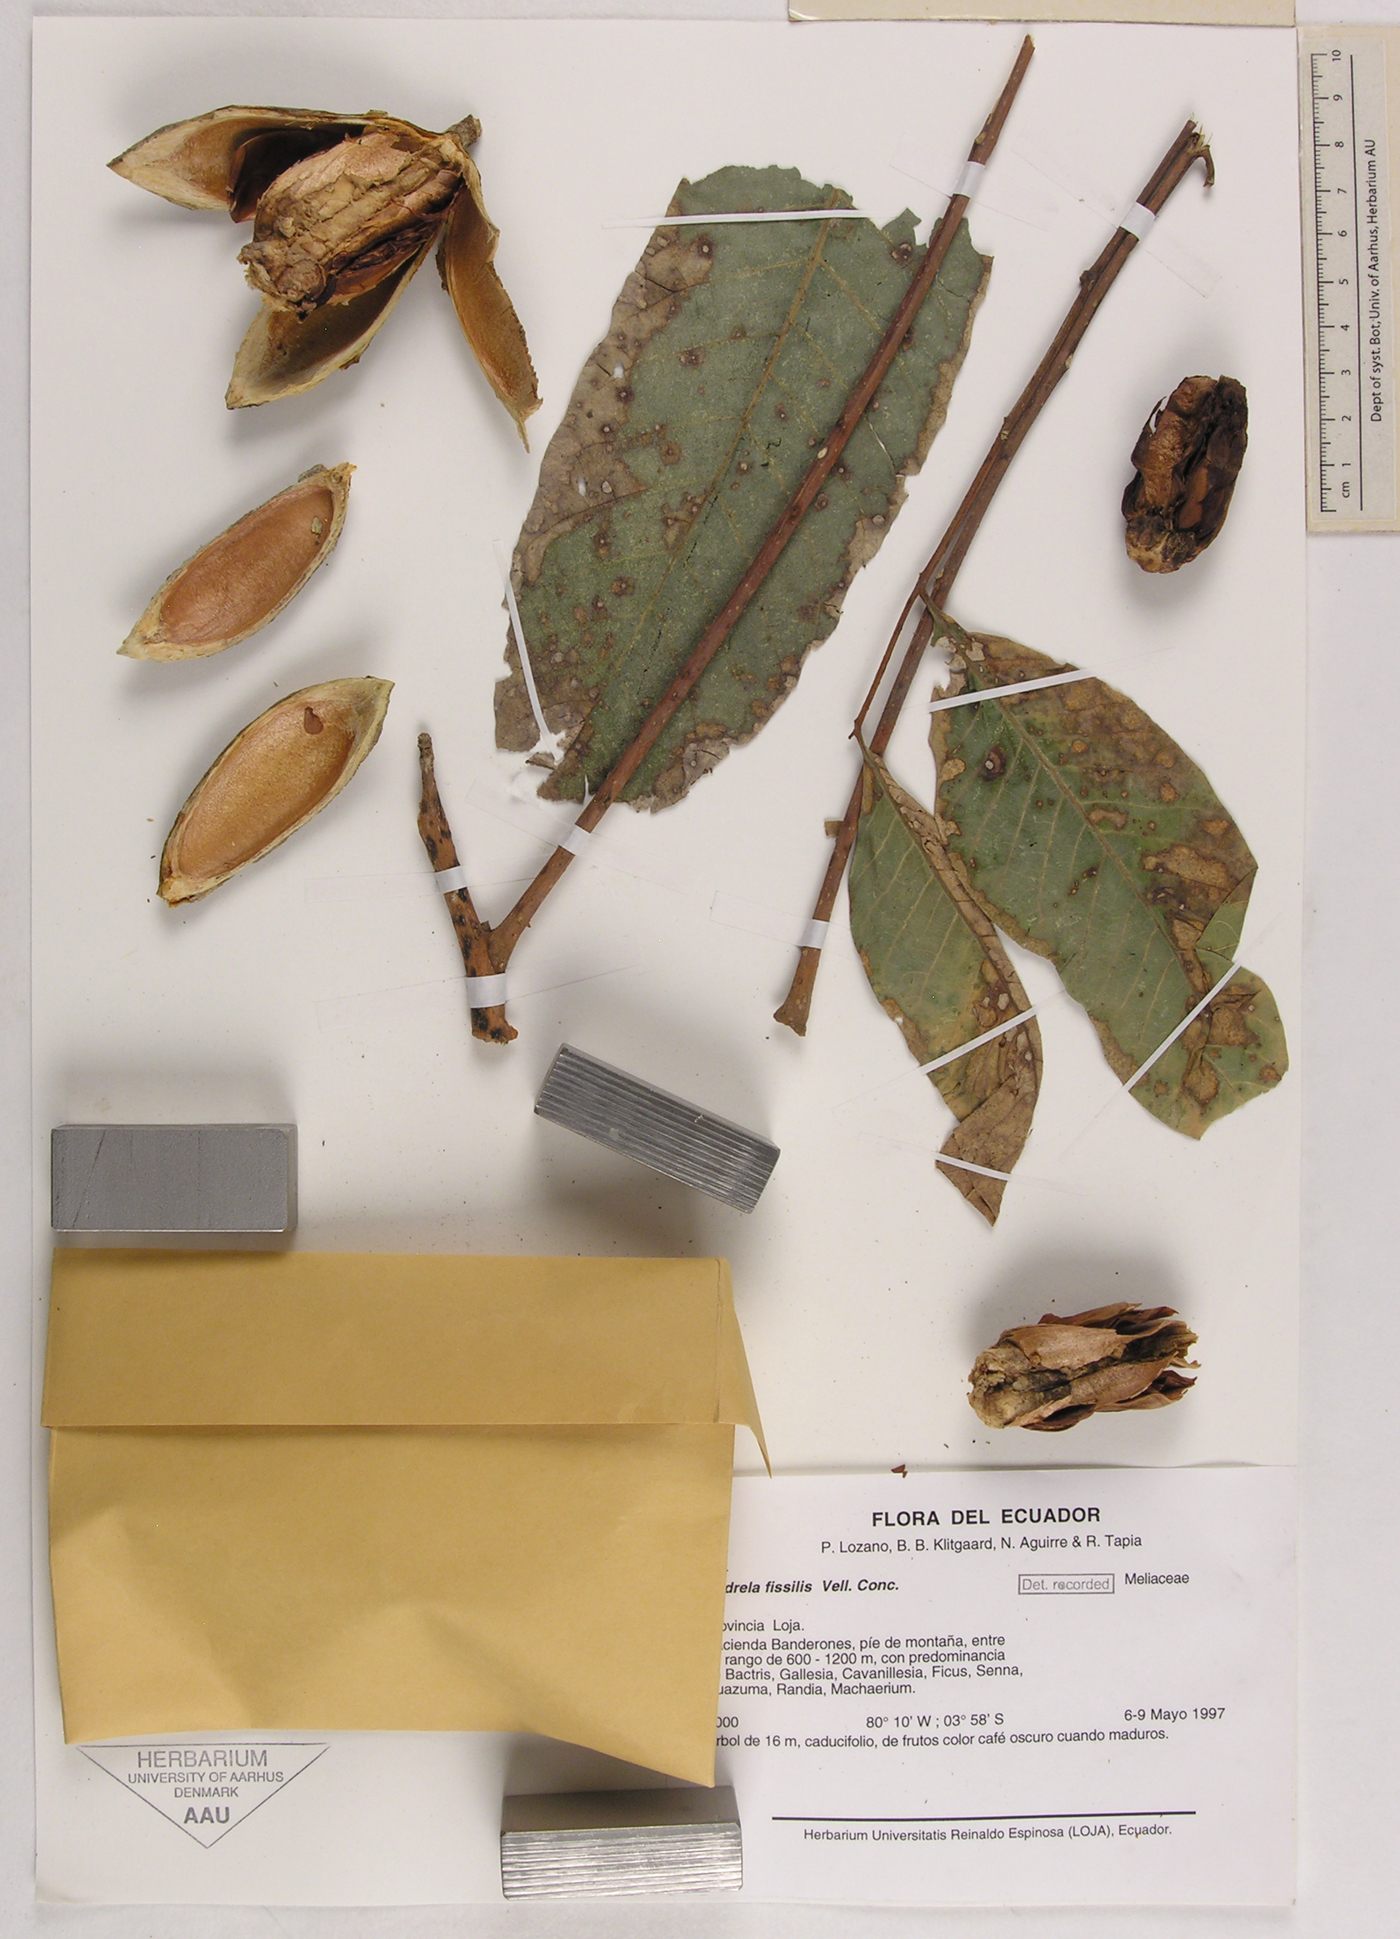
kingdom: Plantae
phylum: Tracheophyta
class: Magnoliopsida
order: Sapindales
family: Meliaceae
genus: Cedrela
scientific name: Cedrela fissilis
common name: Argentine cedar
